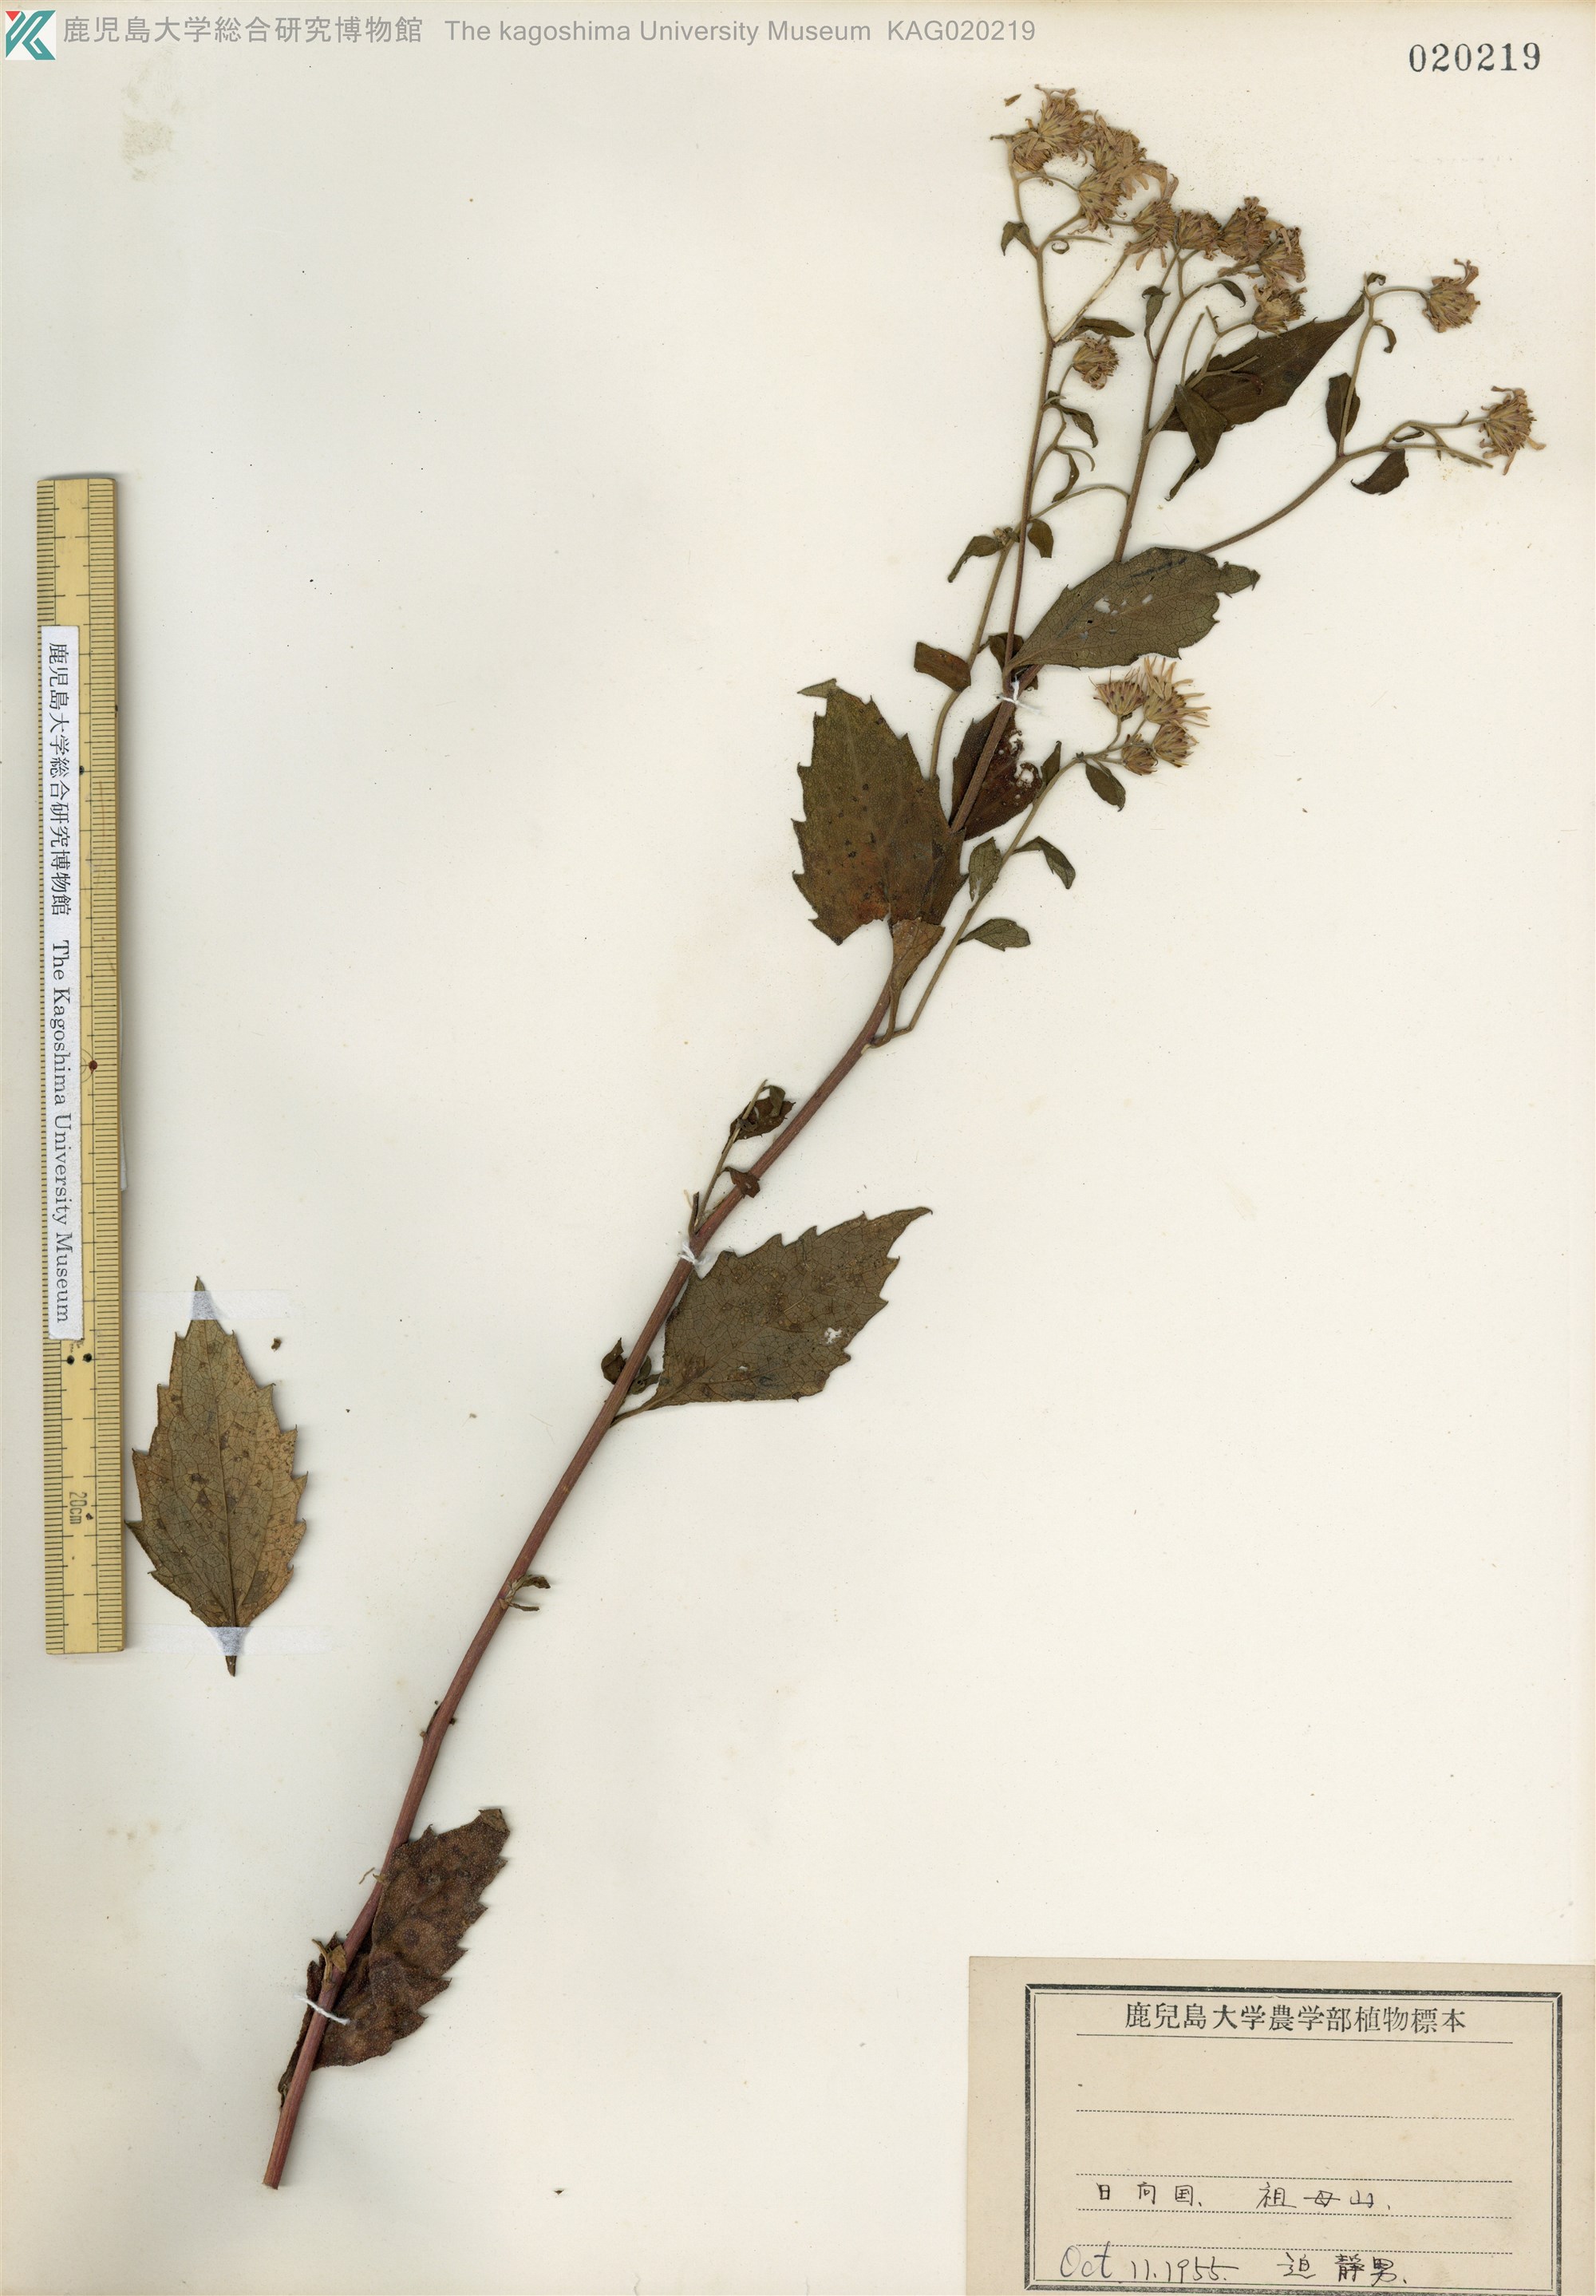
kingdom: Plantae
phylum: Tracheophyta
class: Magnoliopsida
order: Asterales
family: Asteraceae
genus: Aster
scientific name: Aster microcephalus
